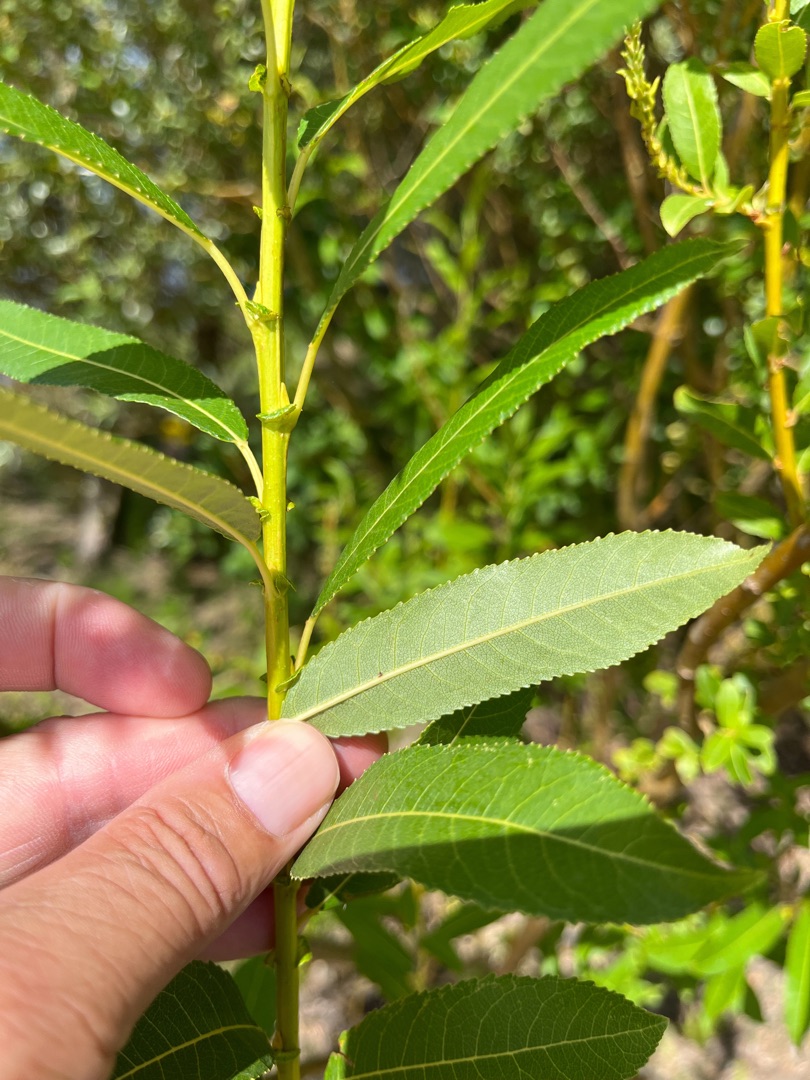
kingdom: Plantae
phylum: Tracheophyta
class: Magnoliopsida
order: Malpighiales
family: Salicaceae
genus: Salix
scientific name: Salix triandra
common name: Mandel-pil
